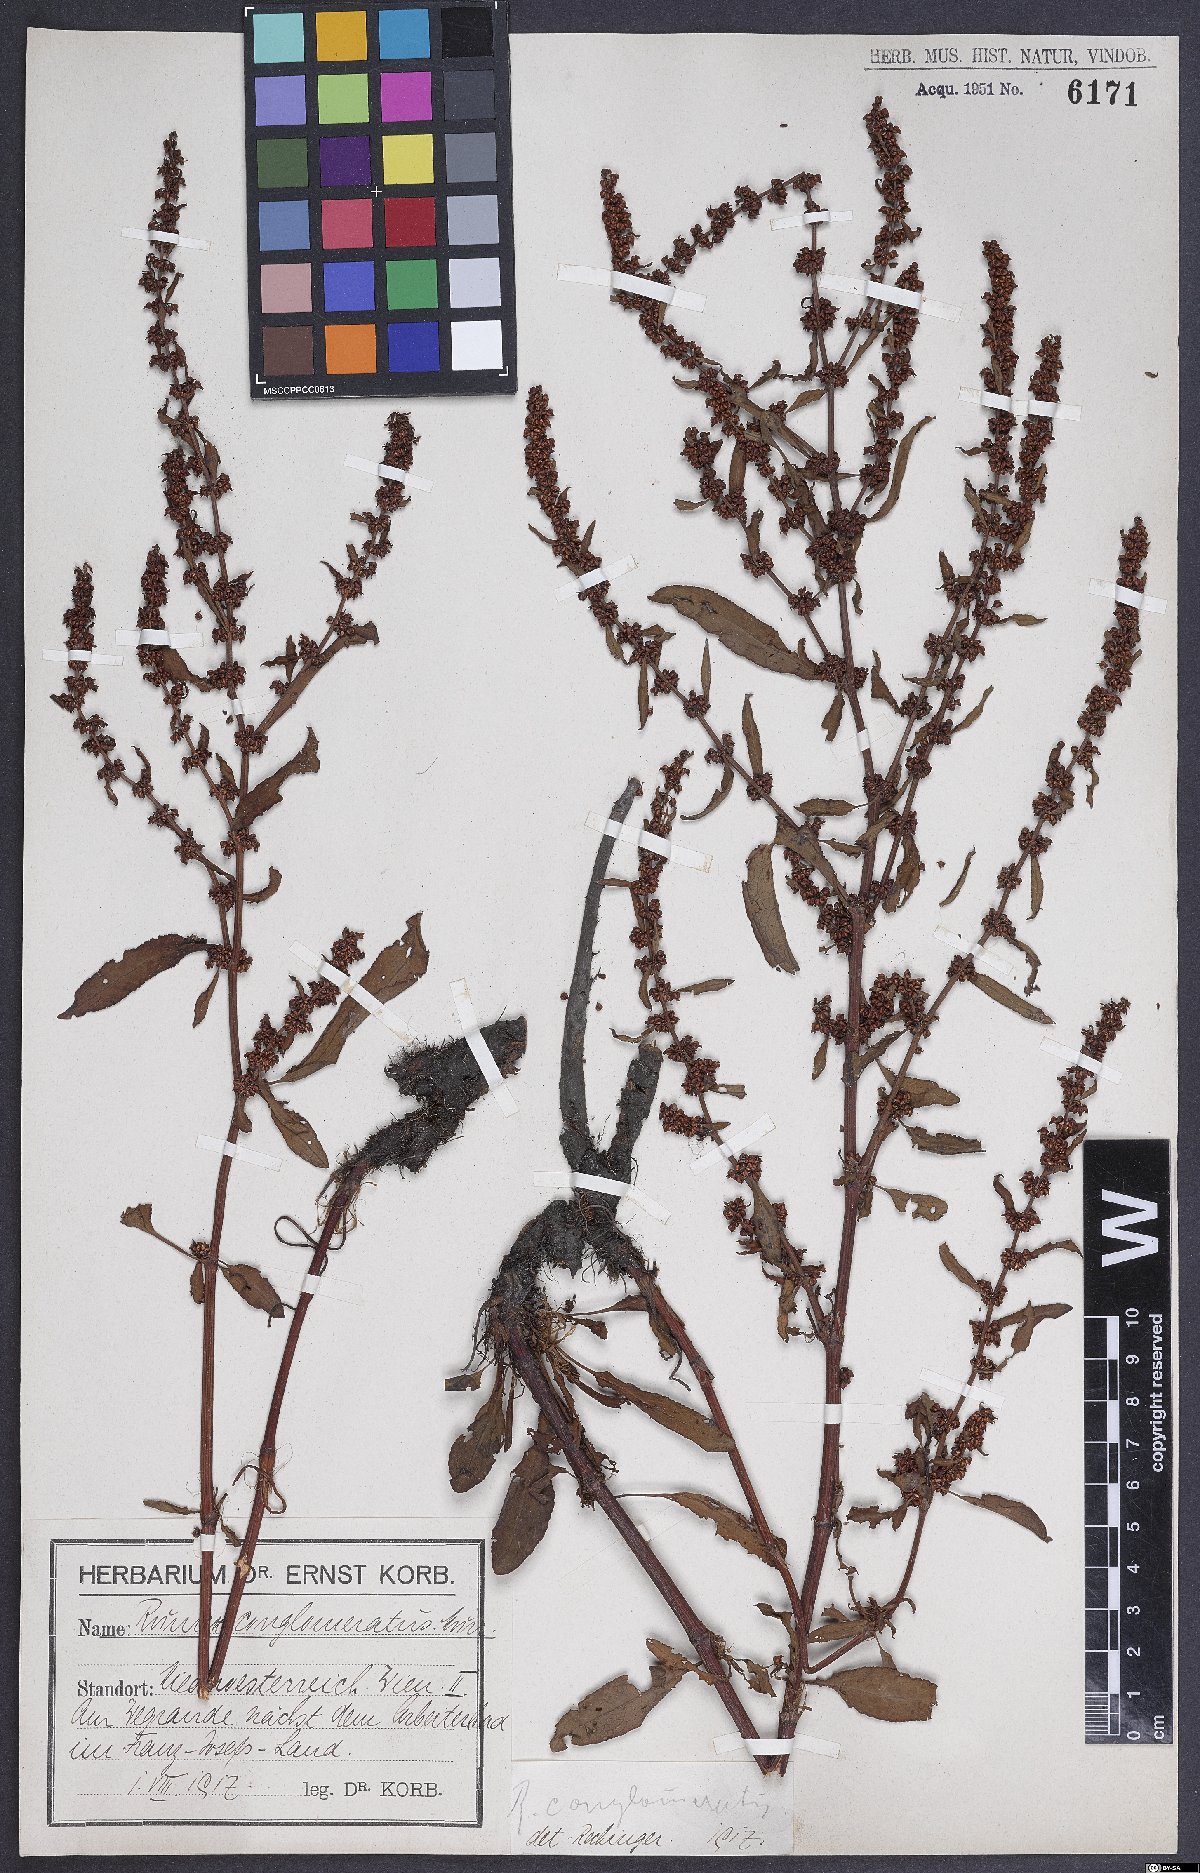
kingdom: Plantae
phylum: Tracheophyta
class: Magnoliopsida
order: Caryophyllales
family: Polygonaceae
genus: Rumex
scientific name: Rumex conglomeratus
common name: Clustered dock
